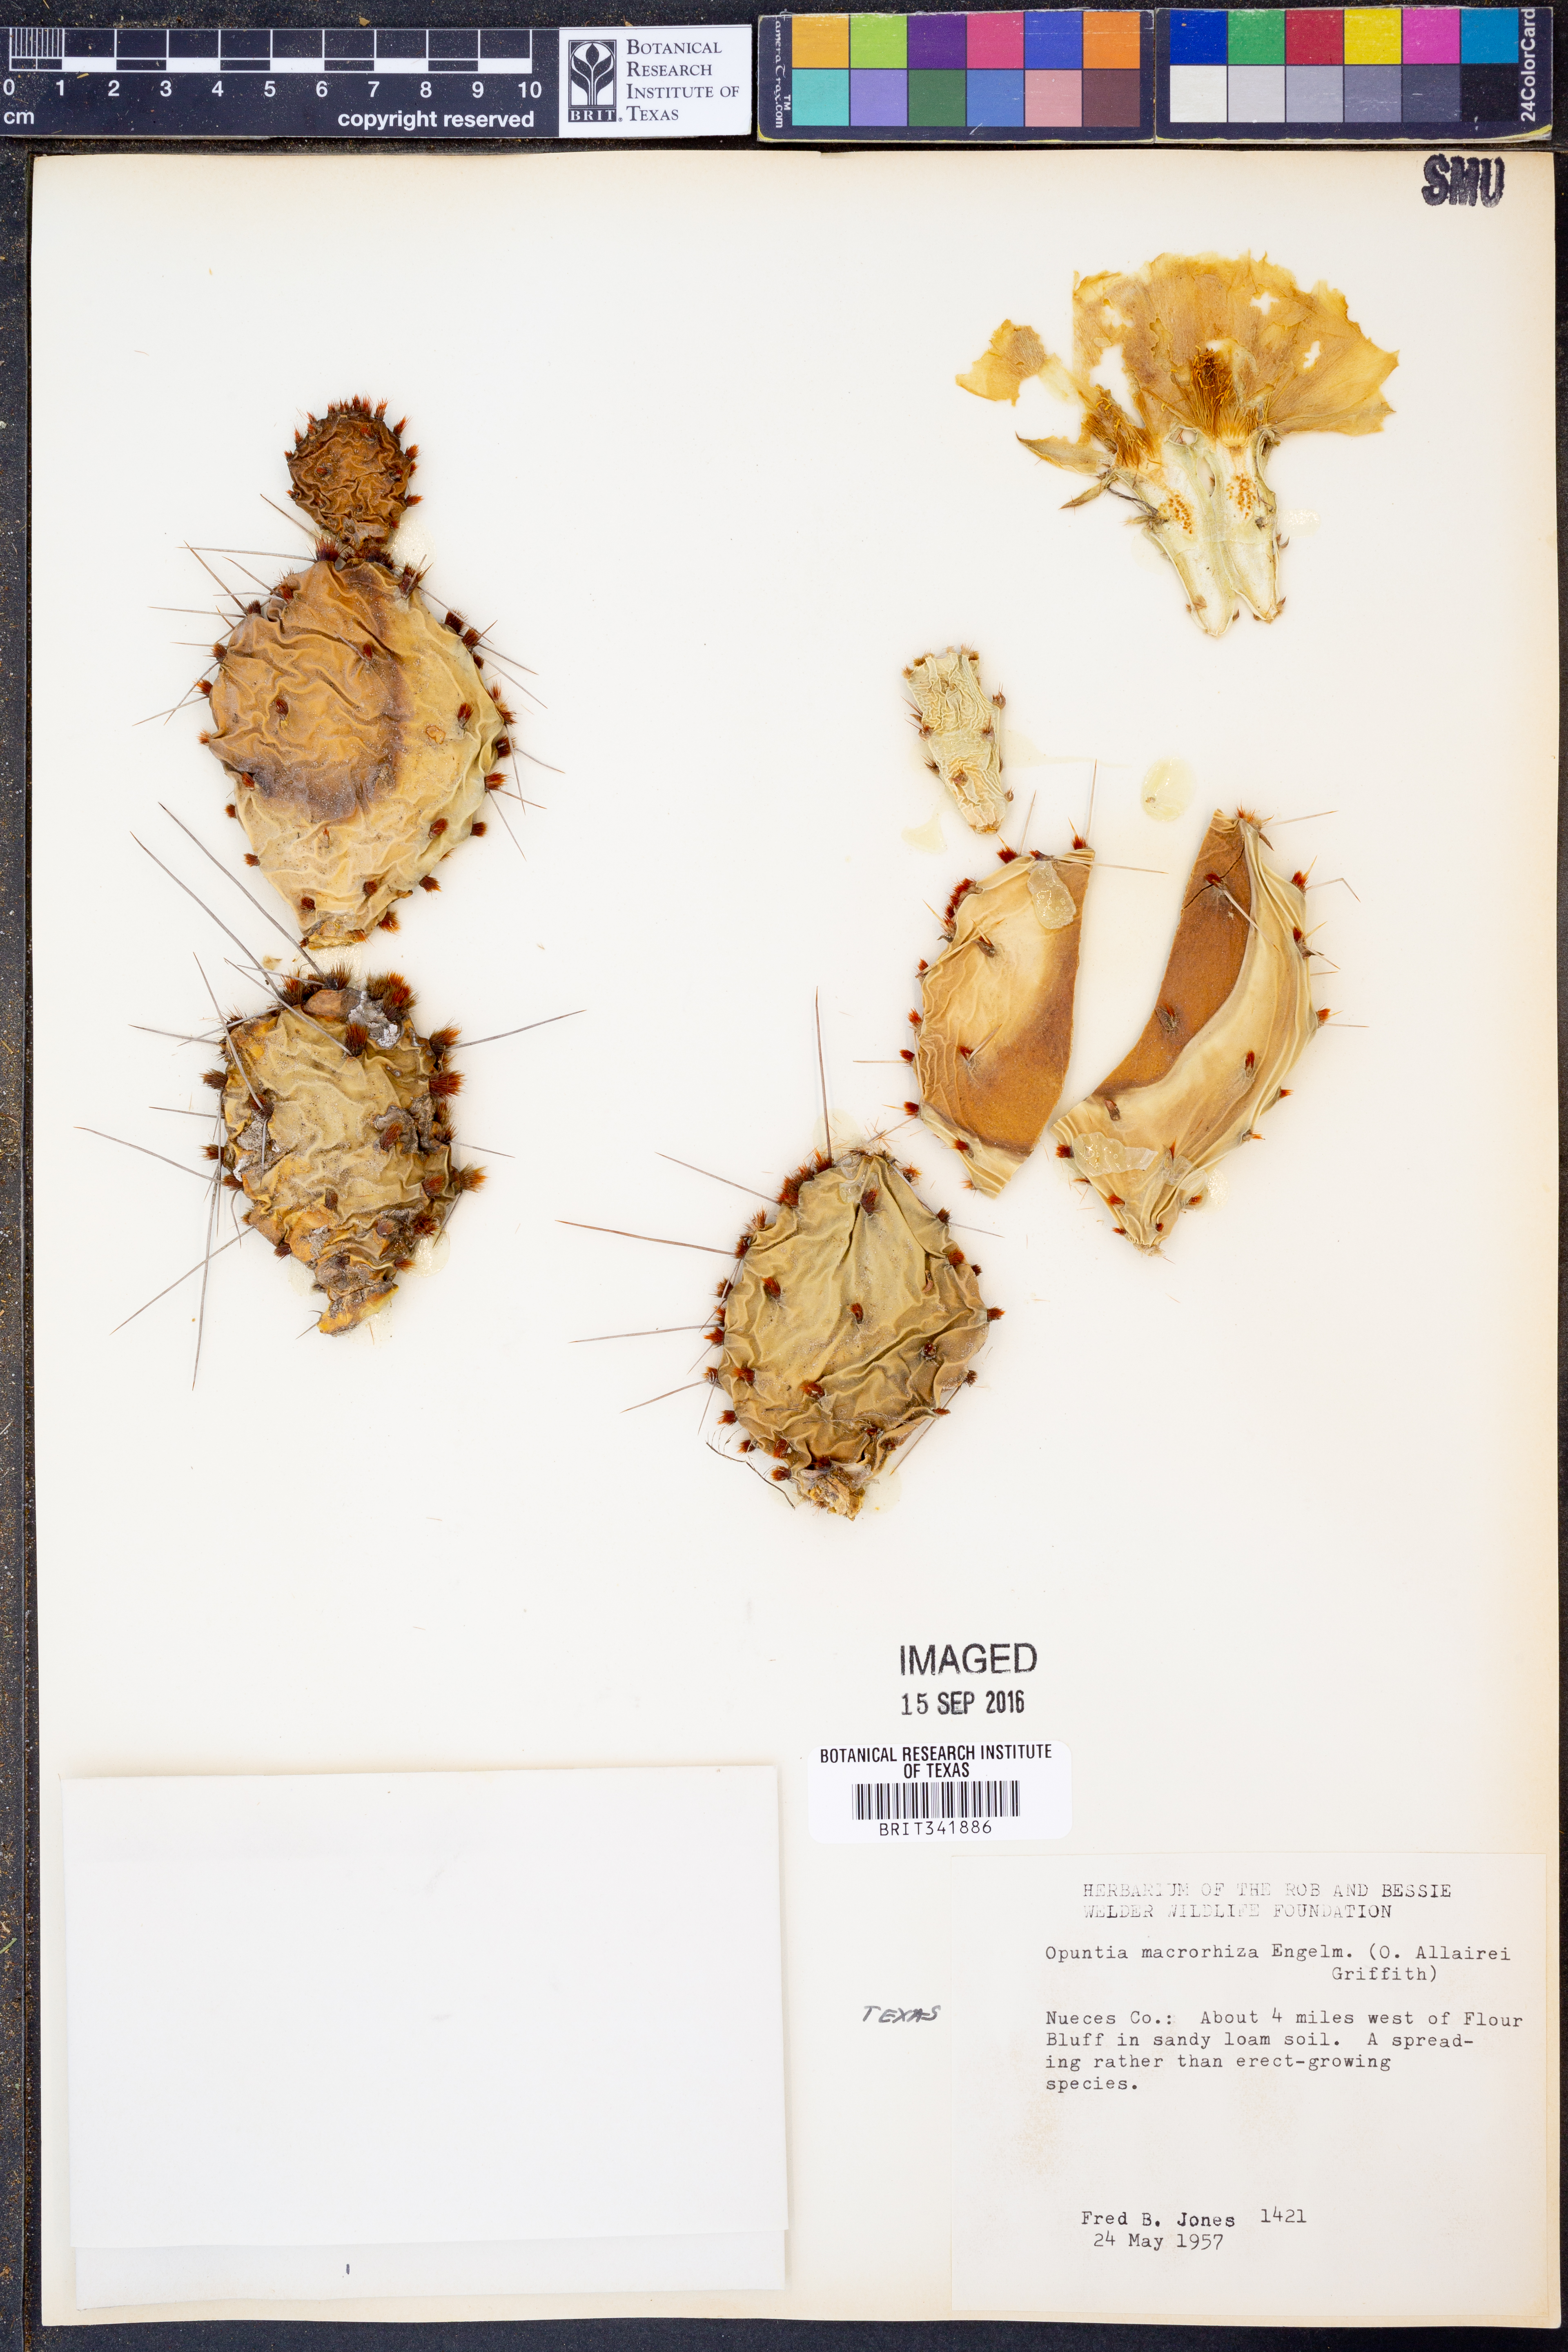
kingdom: Plantae
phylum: Tracheophyta
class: Magnoliopsida
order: Caryophyllales
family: Cactaceae
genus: Opuntia
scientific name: Opuntia macrorhiza
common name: Grassland pricklypear
